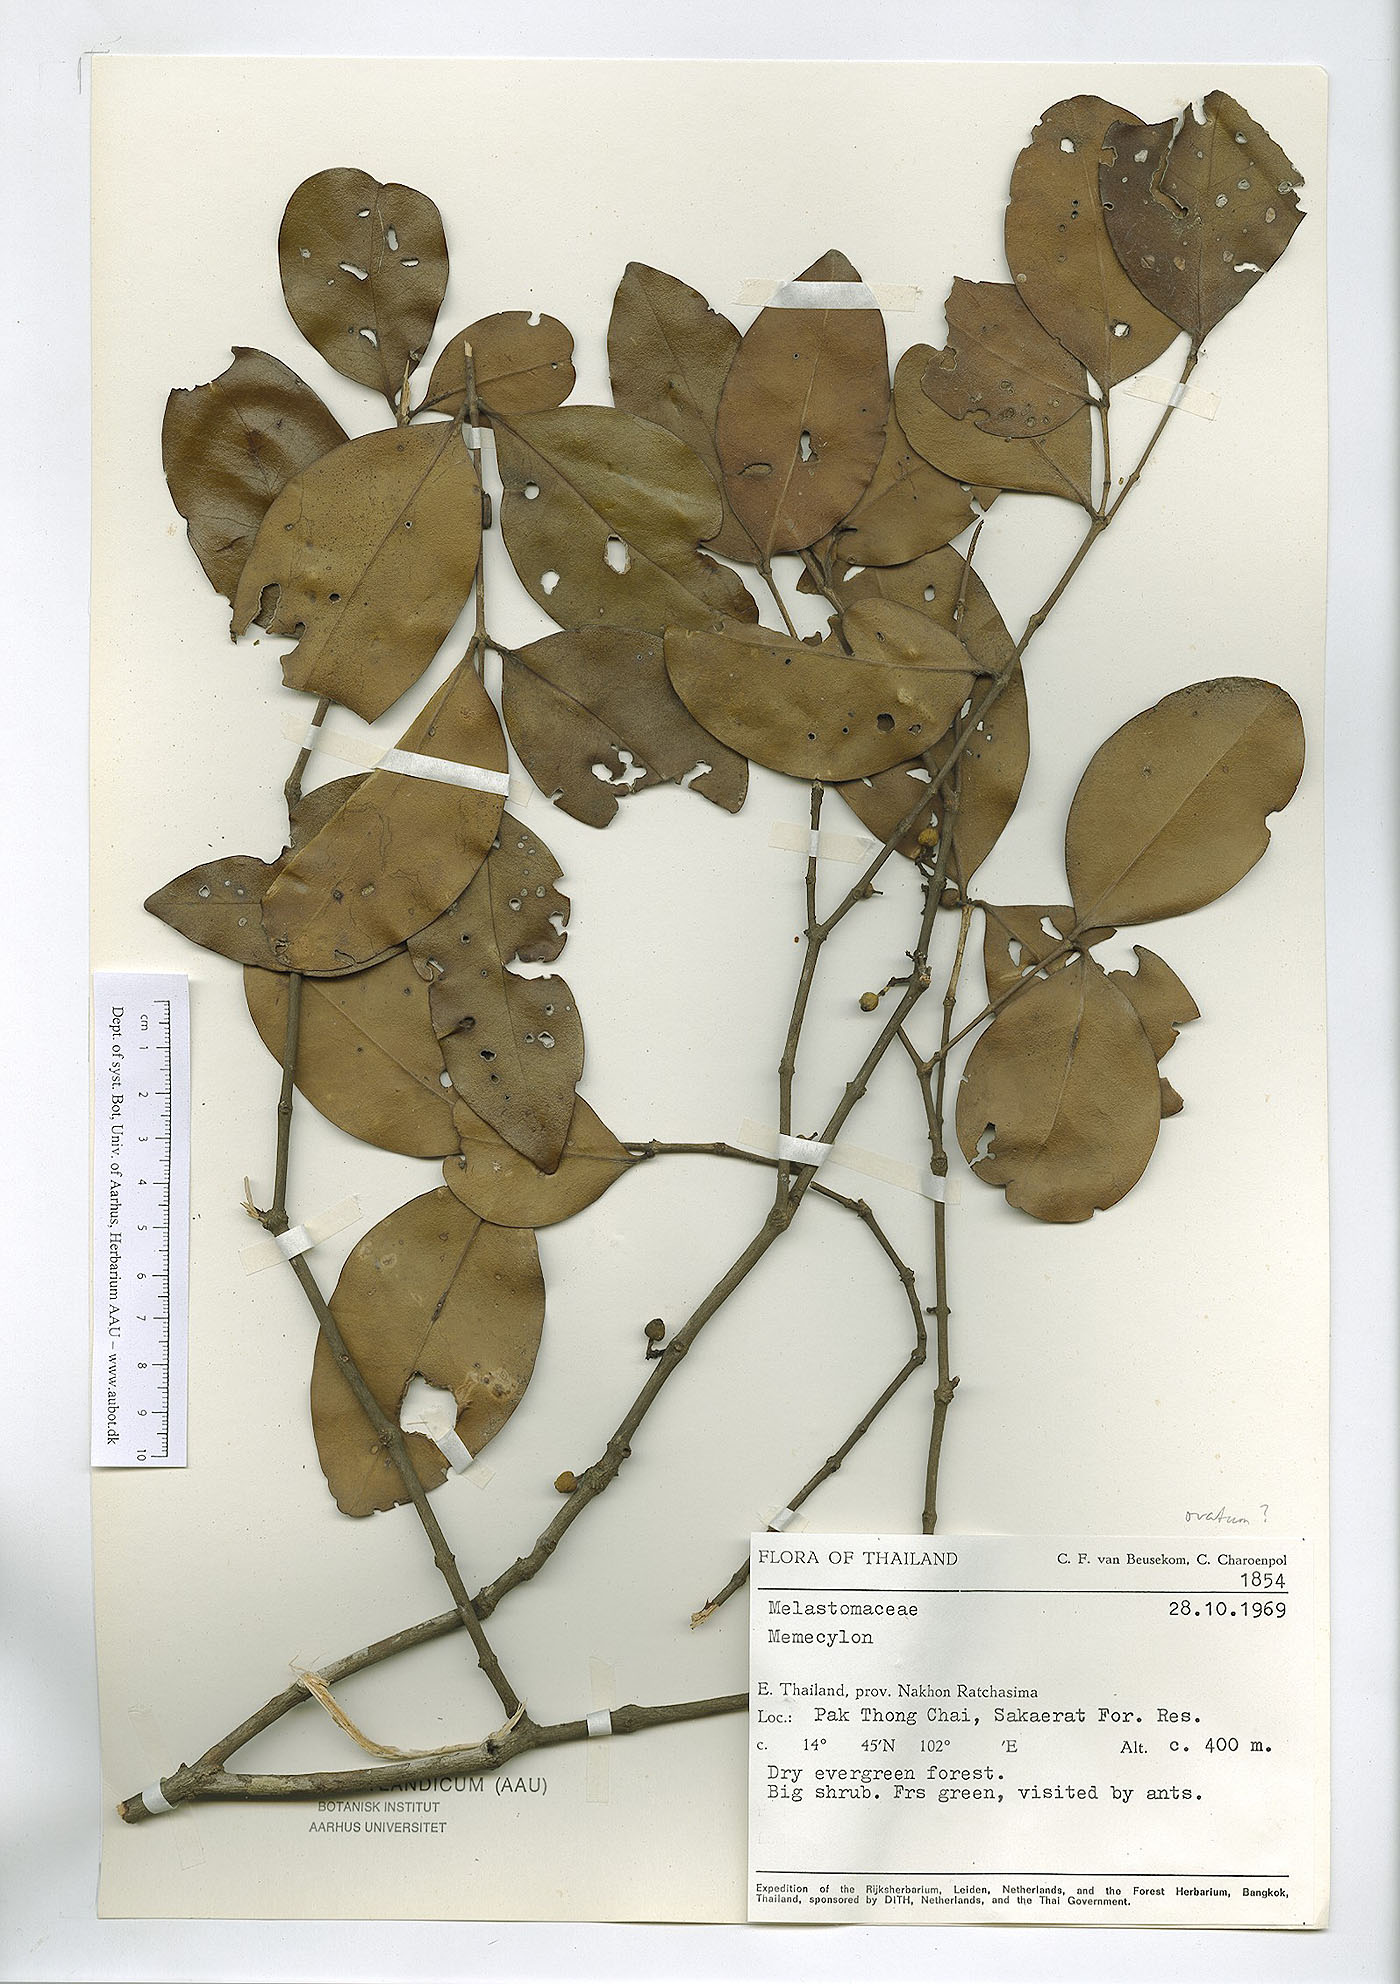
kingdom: Plantae
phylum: Tracheophyta
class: Magnoliopsida
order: Myrtales
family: Melastomataceae
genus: Memecylon
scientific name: Memecylon edule
